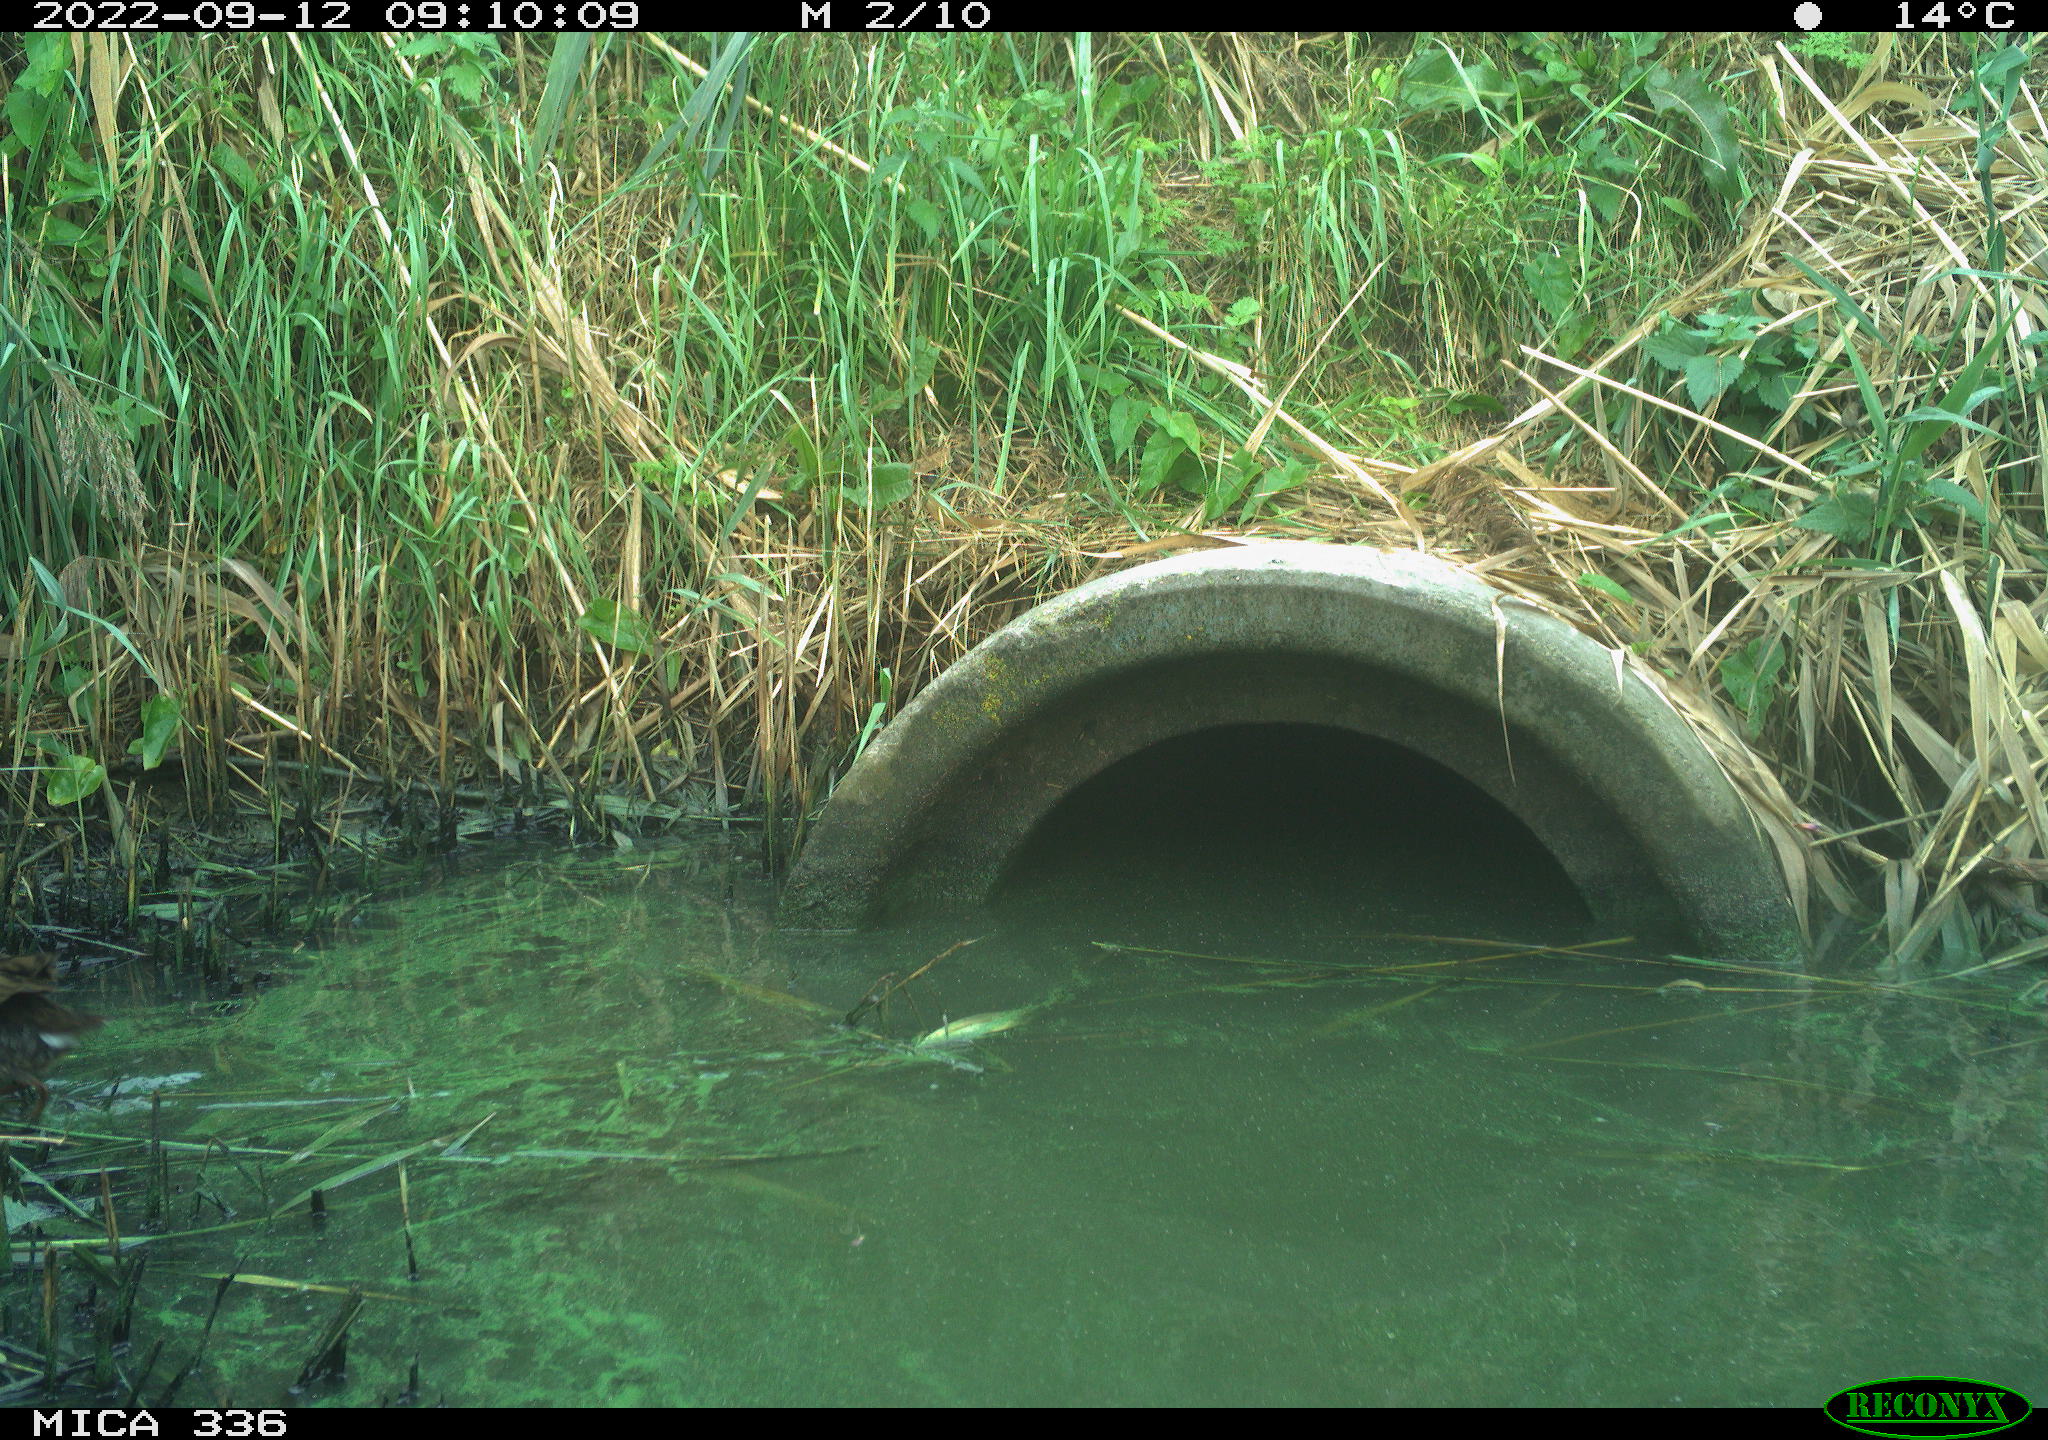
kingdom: Animalia
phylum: Chordata
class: Aves
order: Gruiformes
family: Rallidae
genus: Rallus
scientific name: Rallus aquaticus
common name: Water rail
